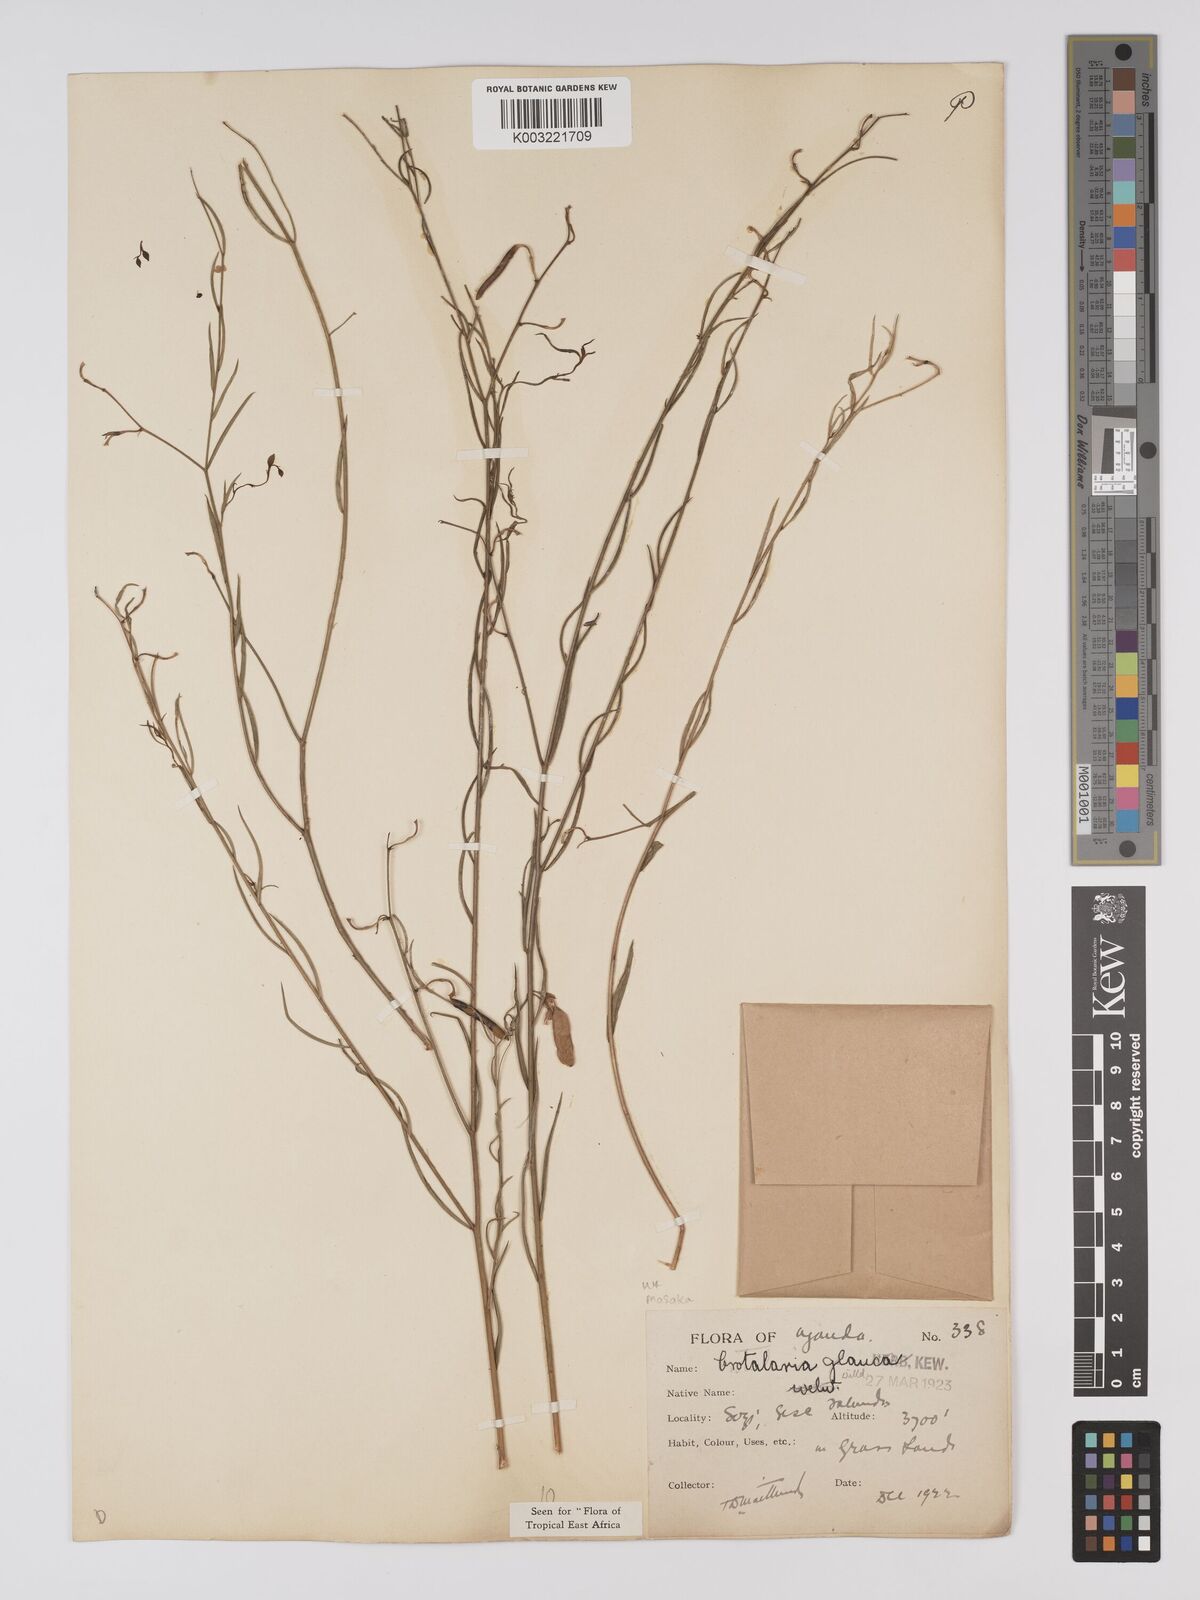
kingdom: Plantae
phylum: Tracheophyta
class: Magnoliopsida
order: Fabales
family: Fabaceae
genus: Crotalaria
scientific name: Crotalaria glauca
